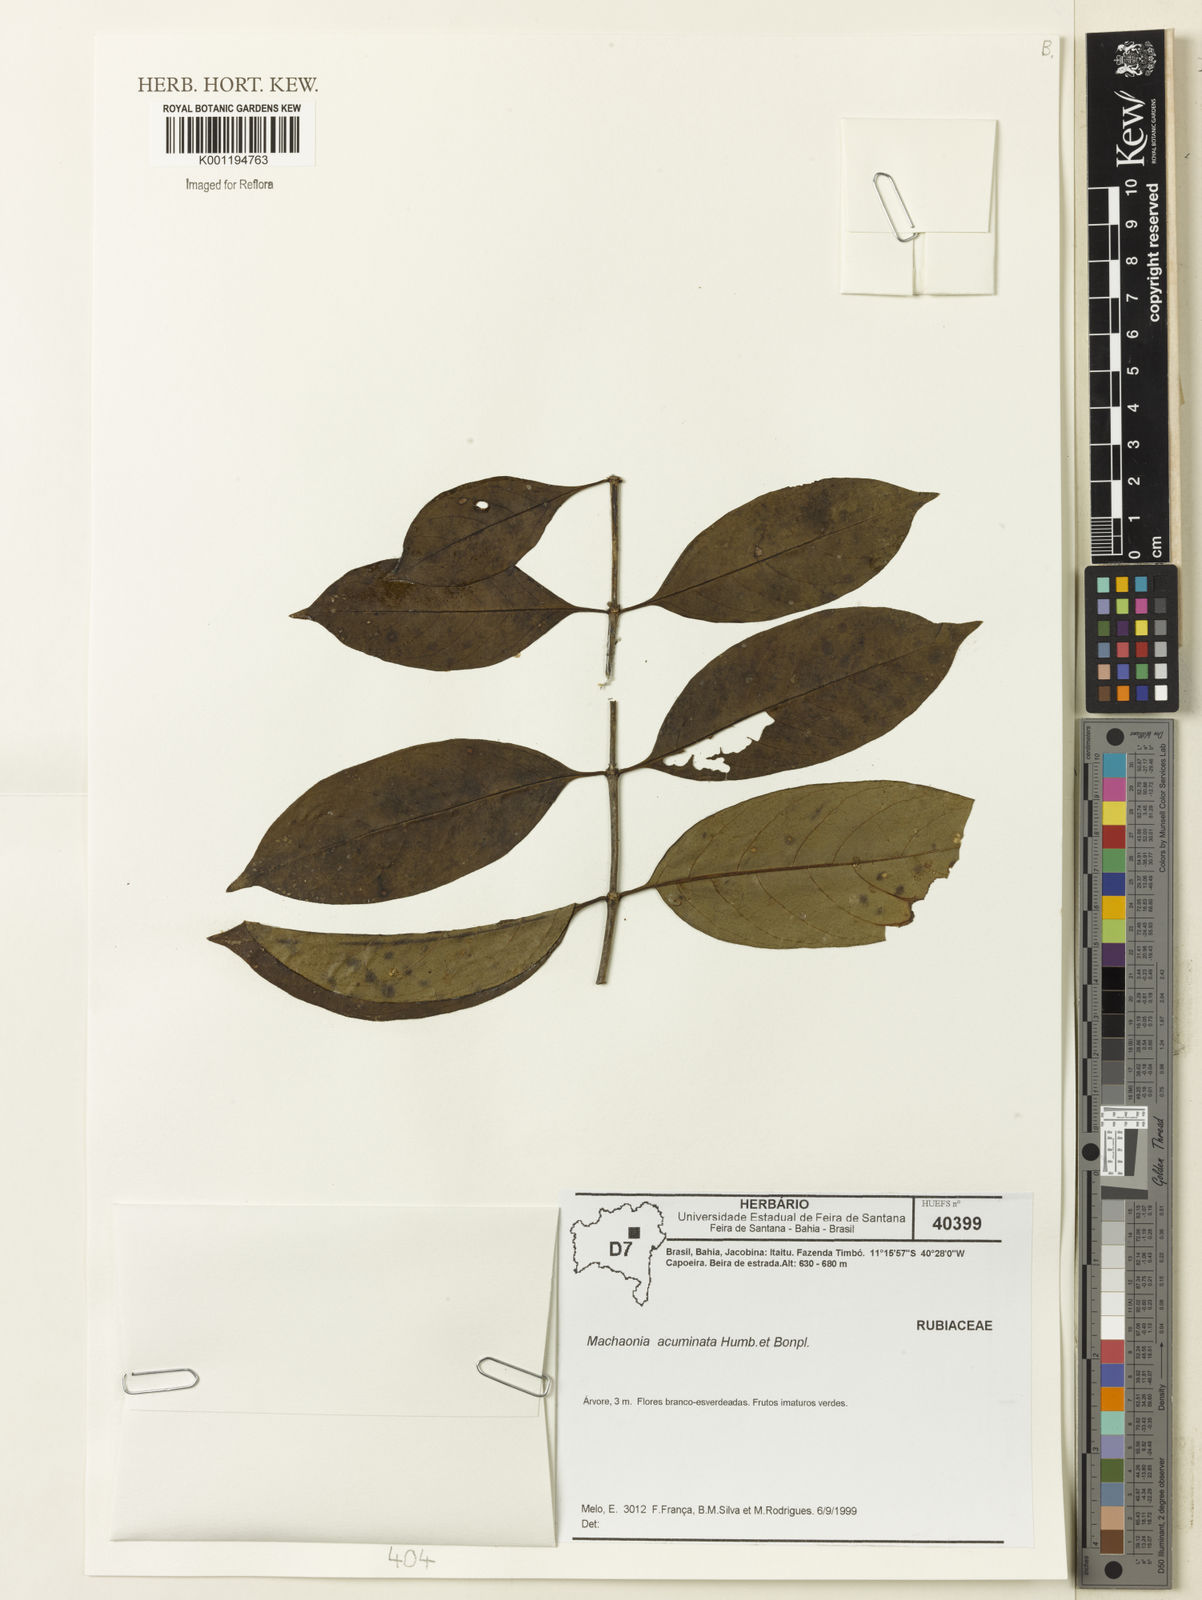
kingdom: Plantae
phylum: Tracheophyta
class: Magnoliopsida
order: Gentianales
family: Rubiaceae
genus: Machaonia
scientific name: Machaonia acuminata
